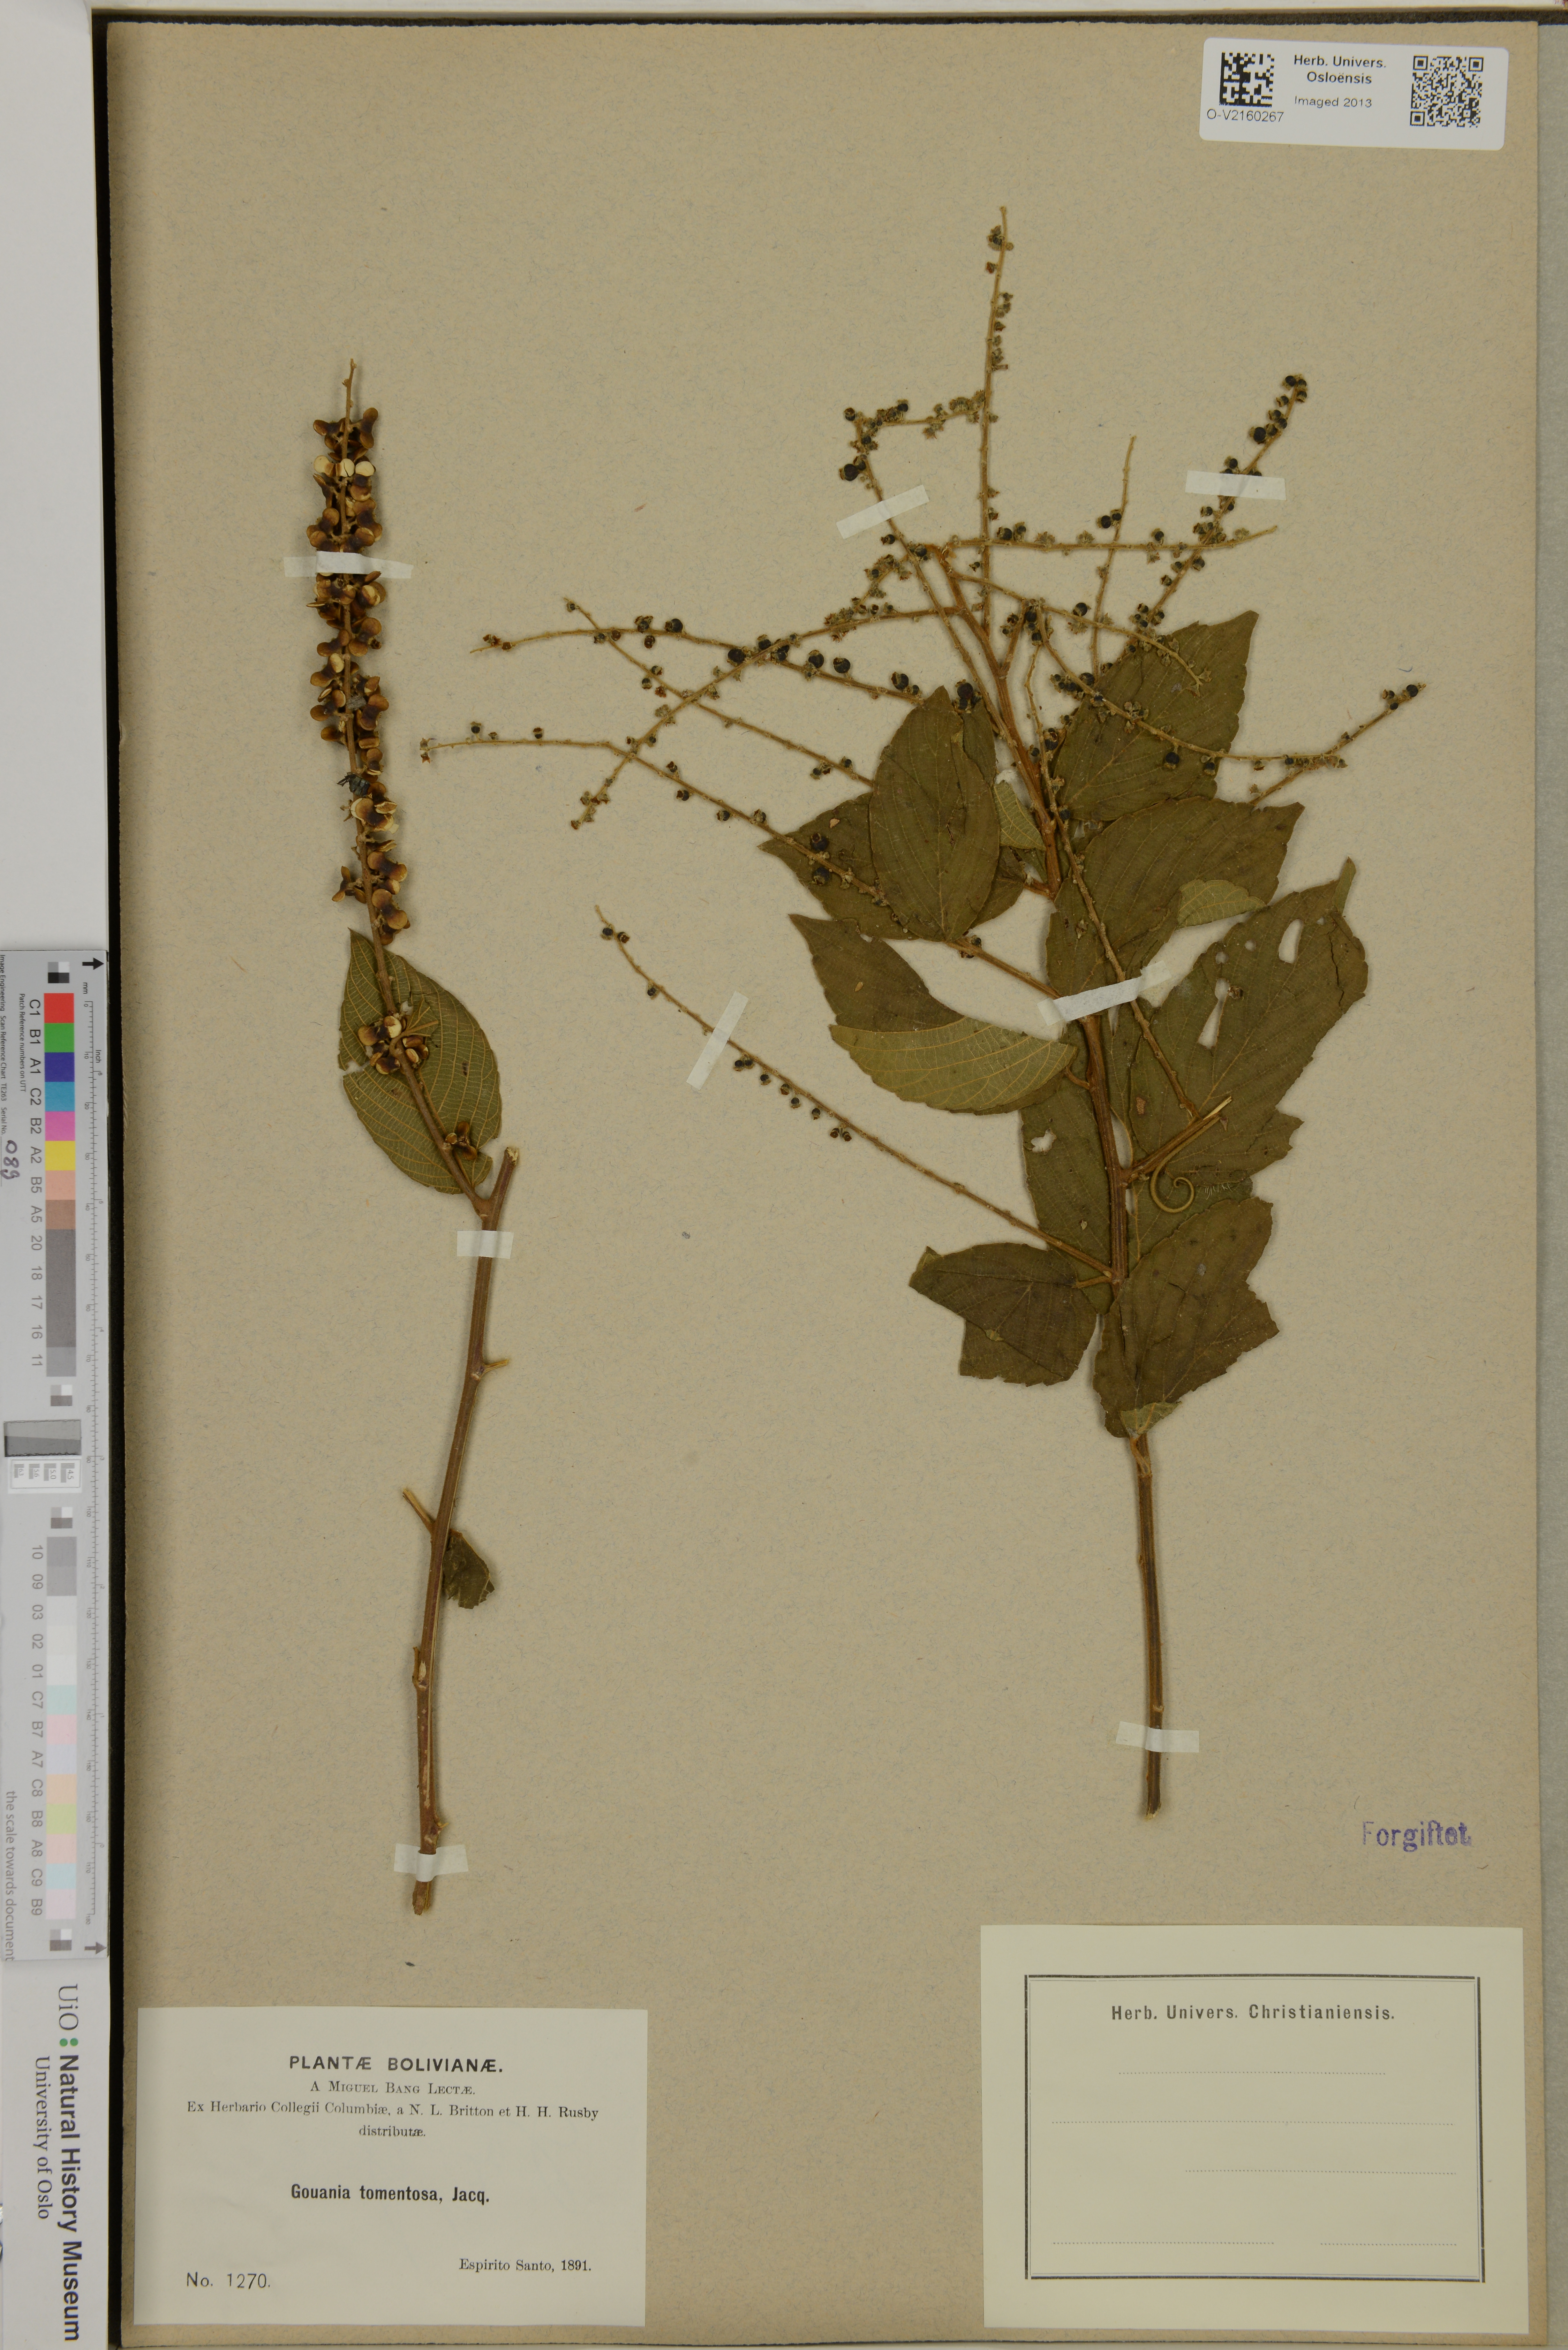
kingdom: Plantae
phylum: Tracheophyta
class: Magnoliopsida
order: Rosales
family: Rhamnaceae
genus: Gouania
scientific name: Gouania polygama
